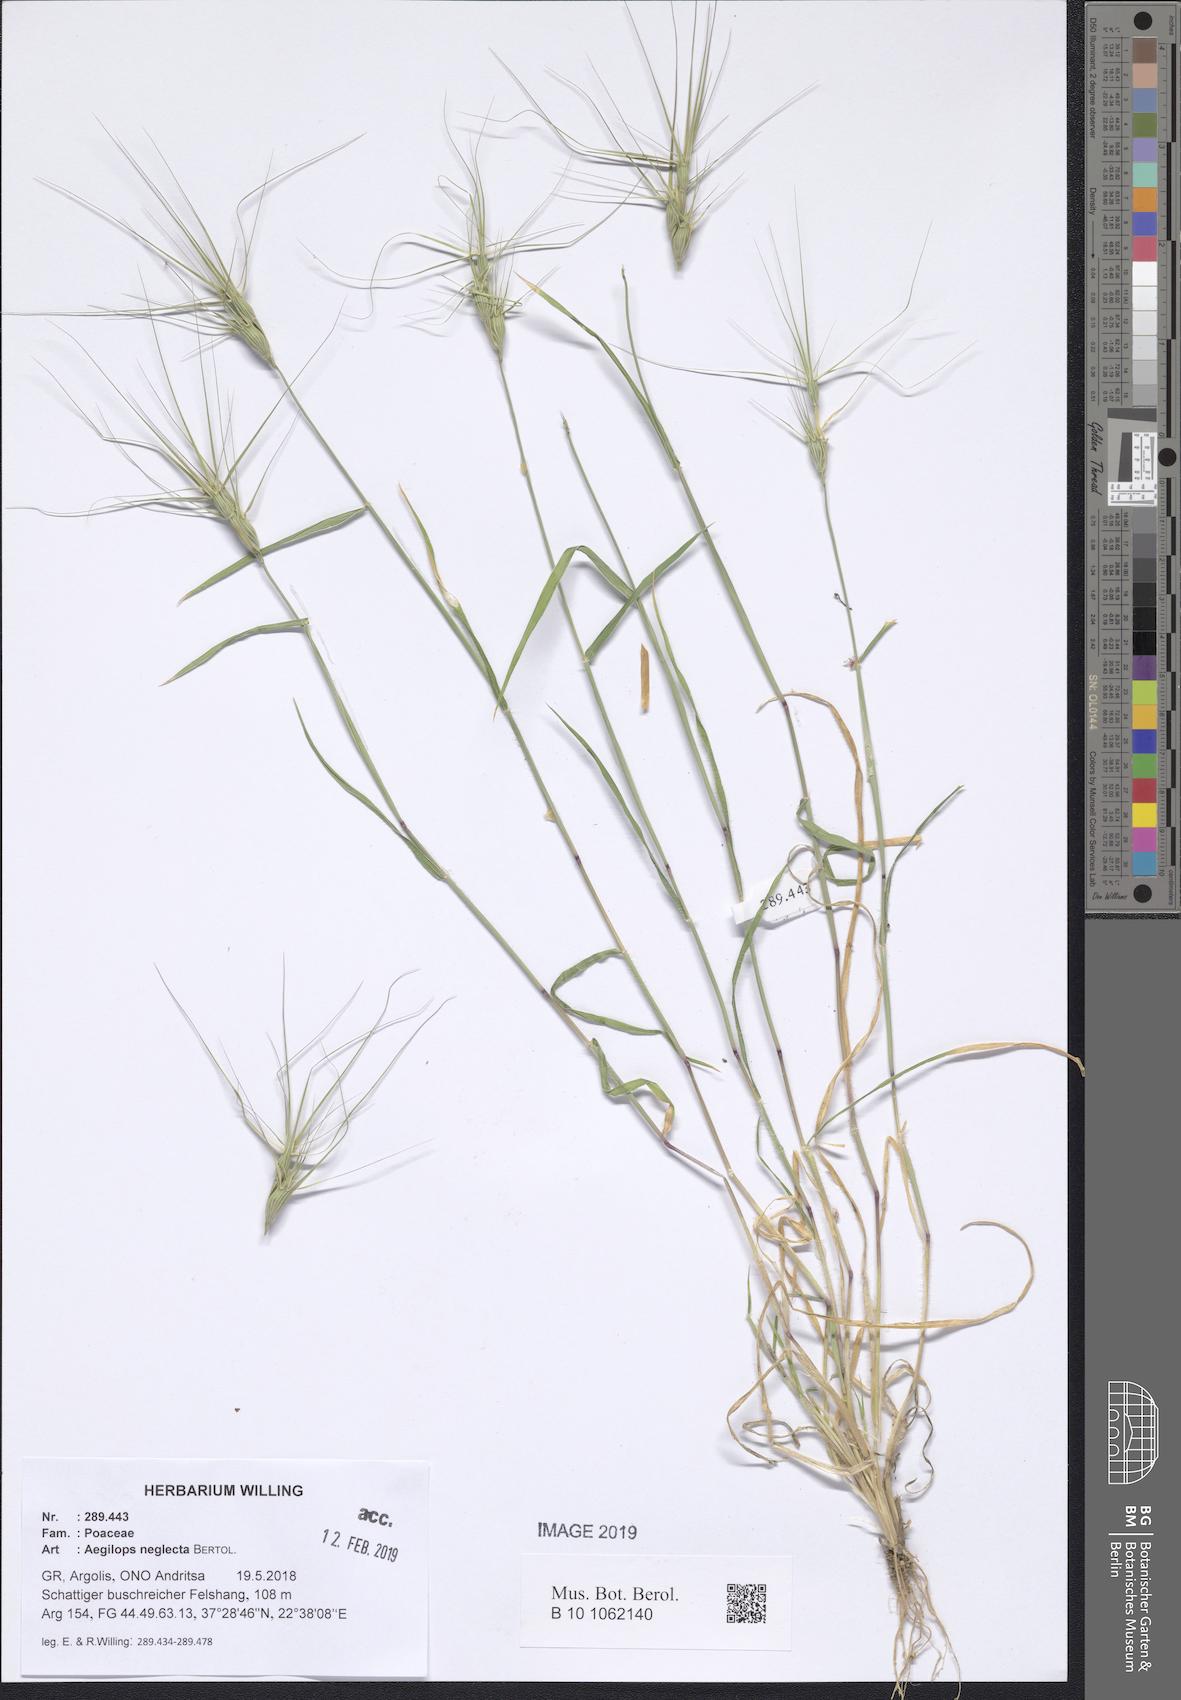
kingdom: Plantae
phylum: Tracheophyta
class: Liliopsida
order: Poales
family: Poaceae
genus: Aegilops
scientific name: Aegilops neglecta
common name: Three-awn goat grass
